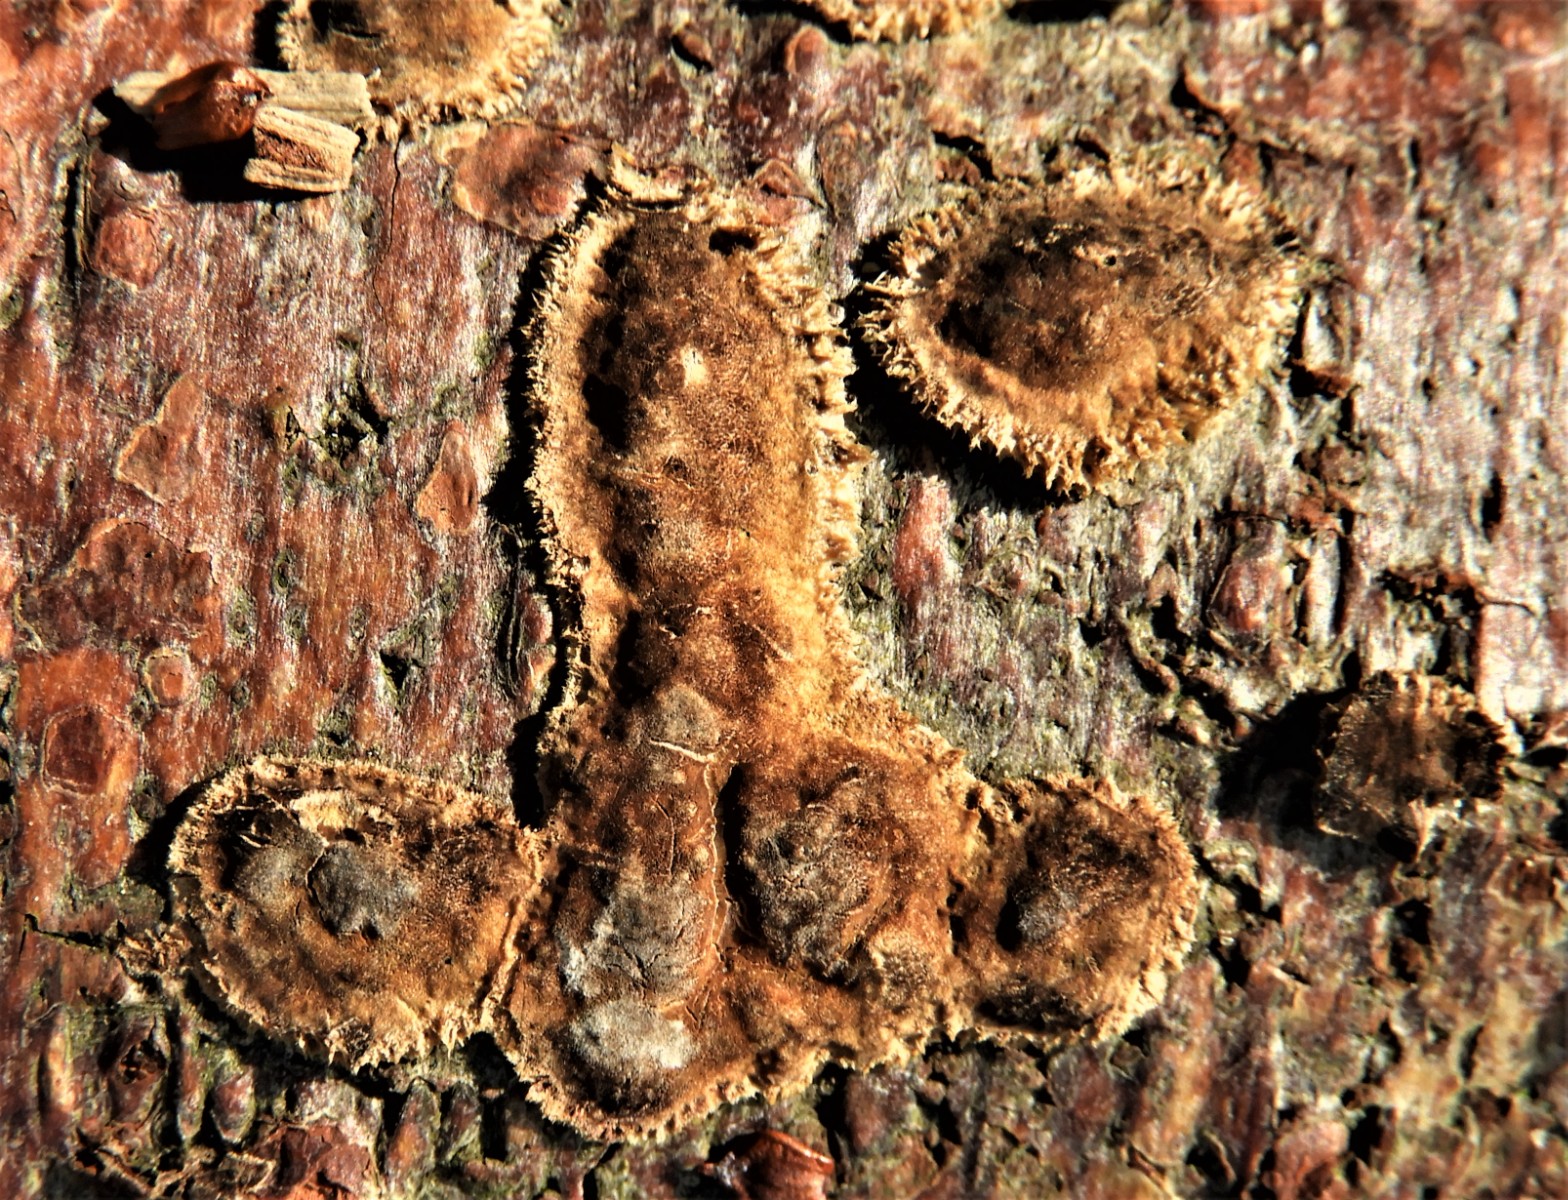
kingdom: Fungi
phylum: Ascomycota
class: Sordariomycetes
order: Xylariales
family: Hypoxylaceae
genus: Hypoxylon
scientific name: Hypoxylon howeanum
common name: halvkugleformet kulbær
